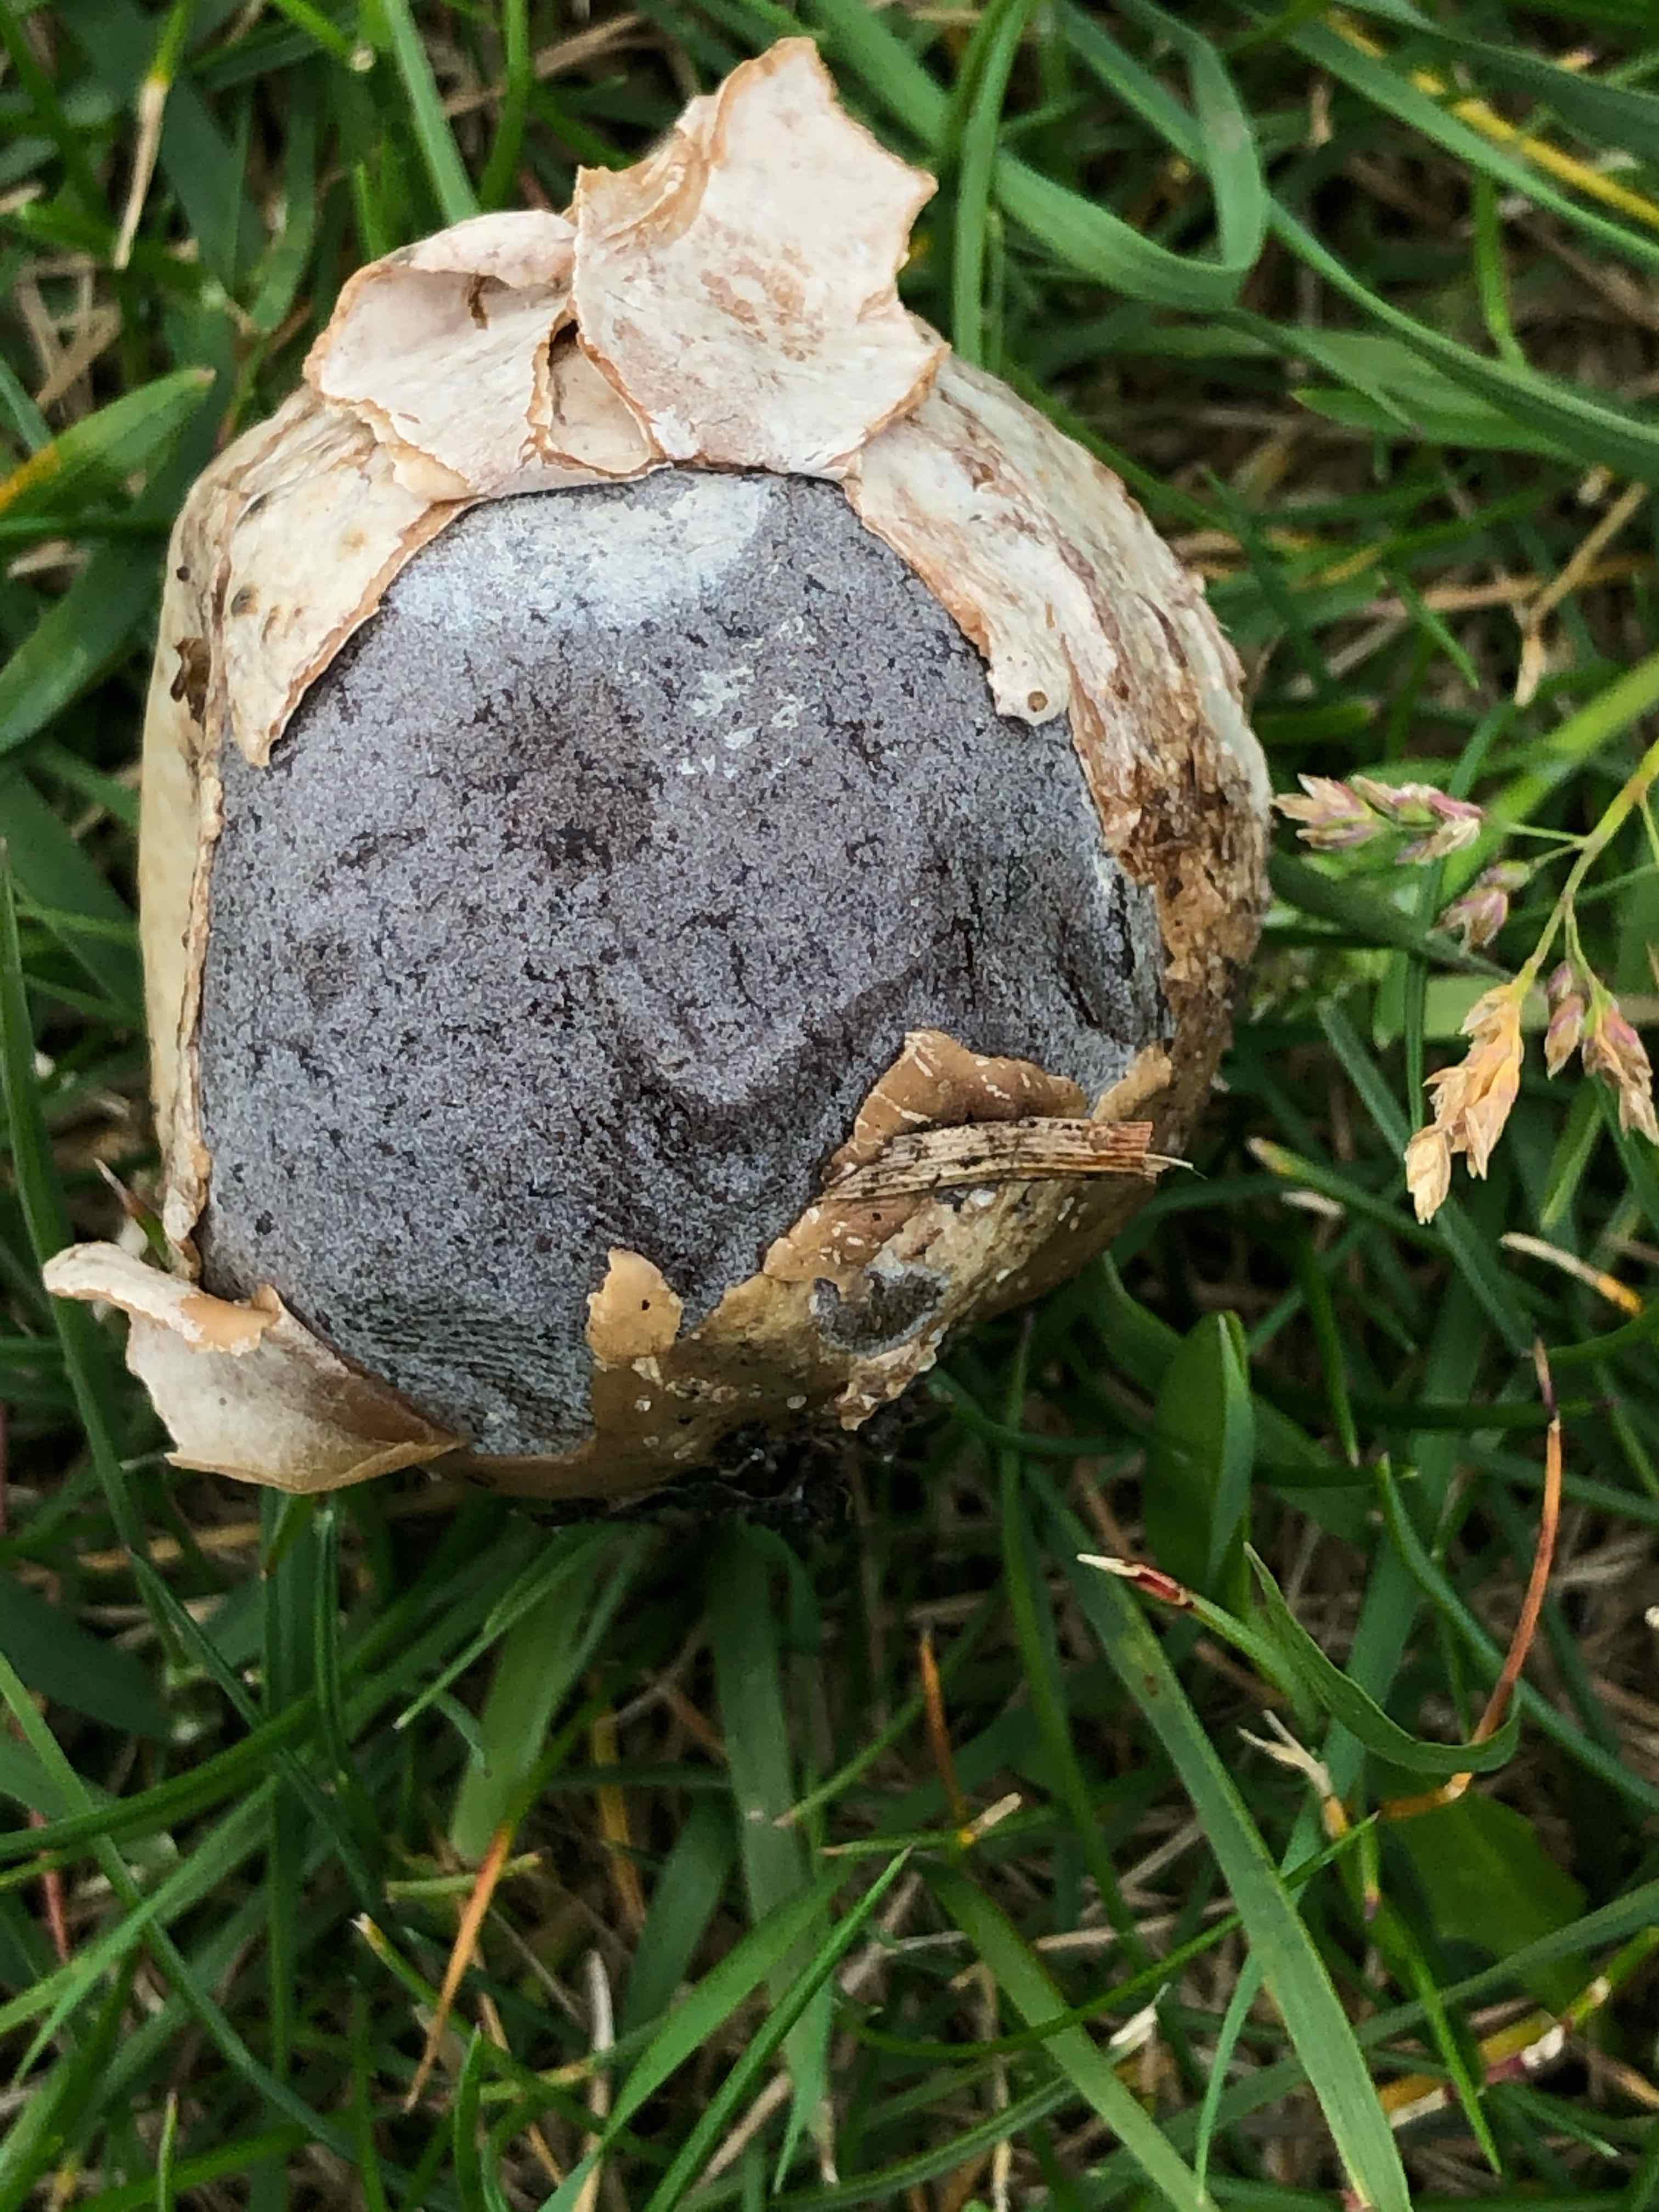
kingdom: Fungi
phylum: Basidiomycota
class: Agaricomycetes
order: Agaricales
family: Lycoperdaceae
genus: Bovista
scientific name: Bovista plumbea
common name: blygrå bovist
